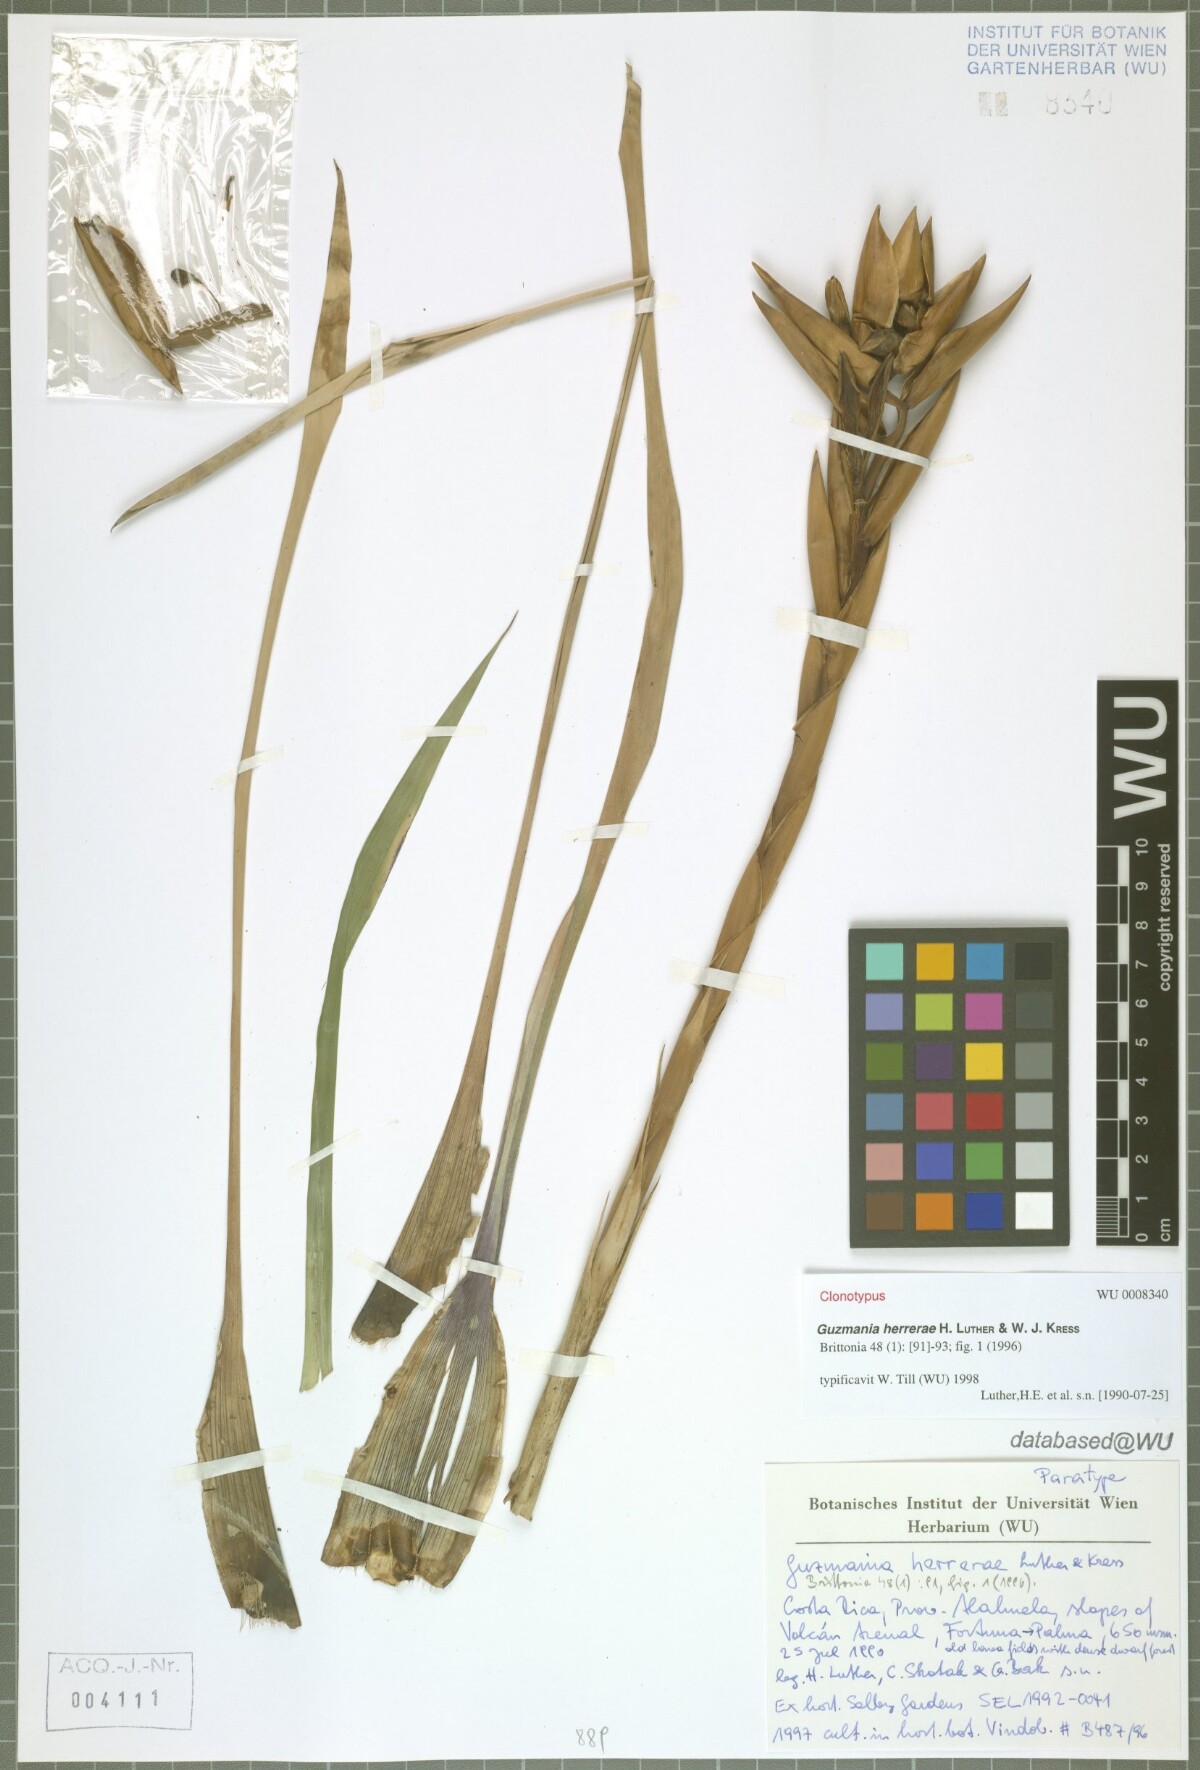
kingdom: Plantae
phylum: Tracheophyta
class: Liliopsida
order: Poales
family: Bromeliaceae
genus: Guzmania
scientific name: Guzmania herrerae
